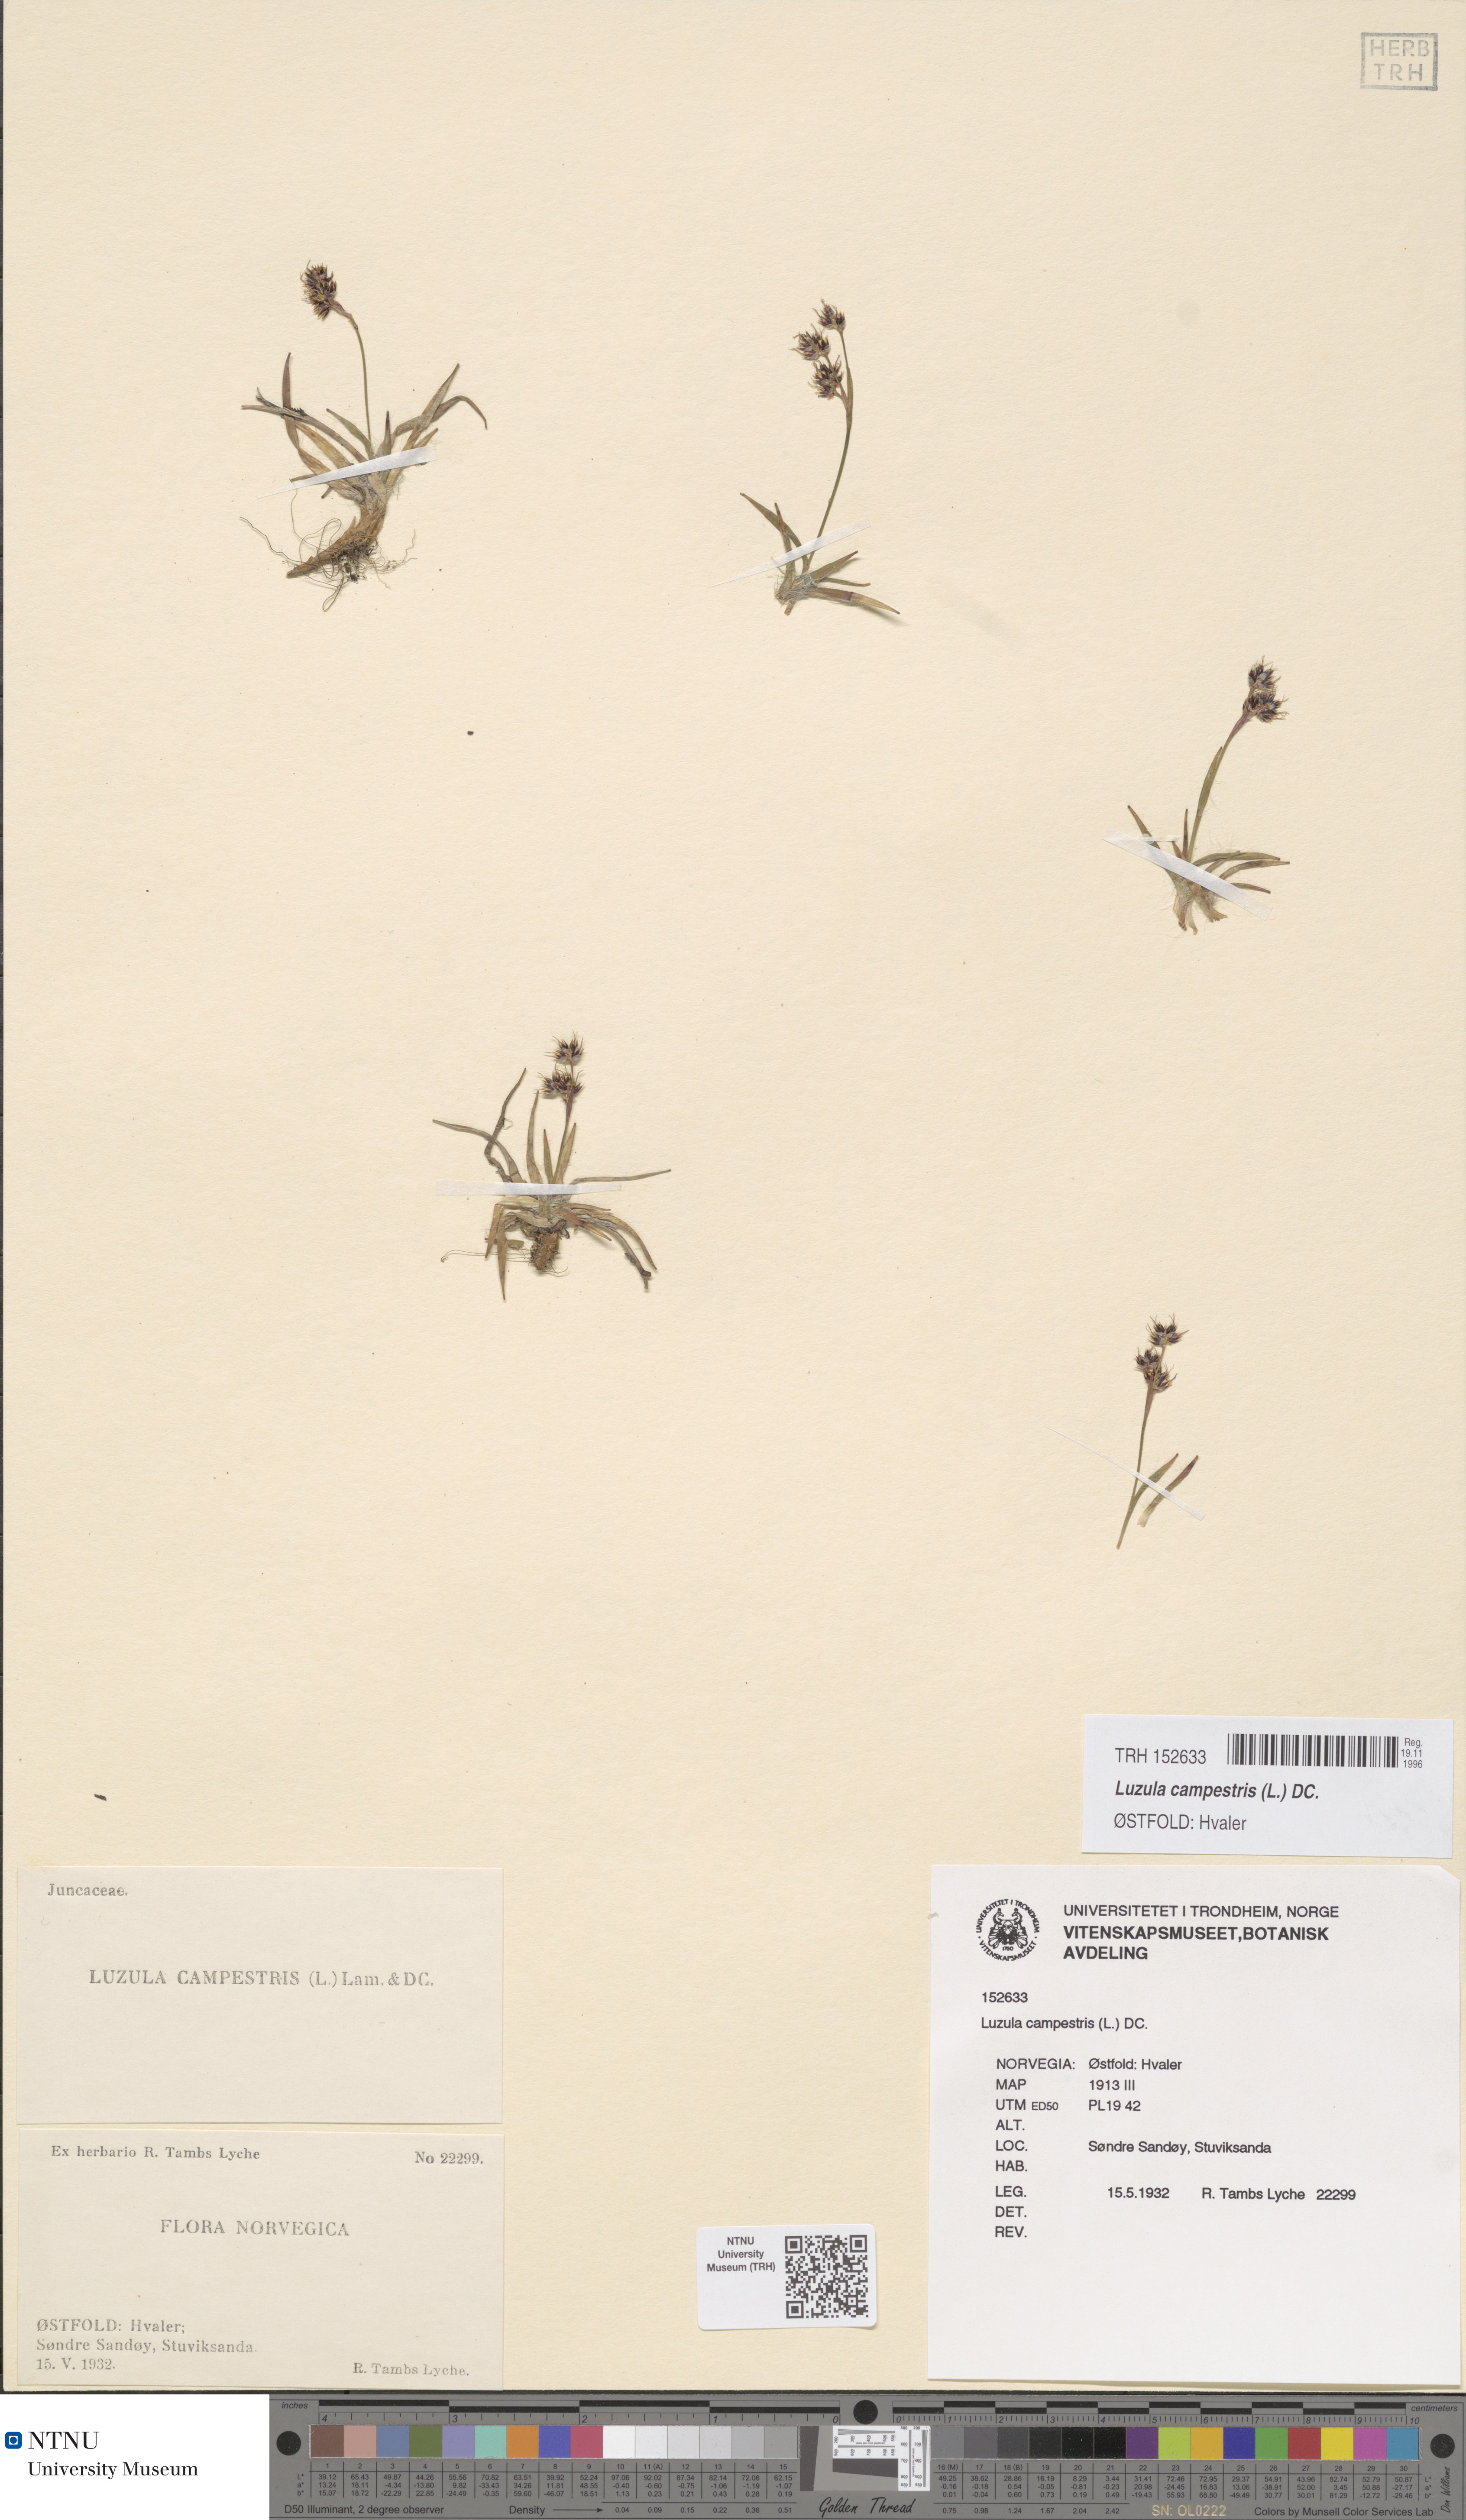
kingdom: Plantae
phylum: Tracheophyta
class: Liliopsida
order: Poales
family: Juncaceae
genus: Luzula
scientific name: Luzula campestris
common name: Field wood-rush
